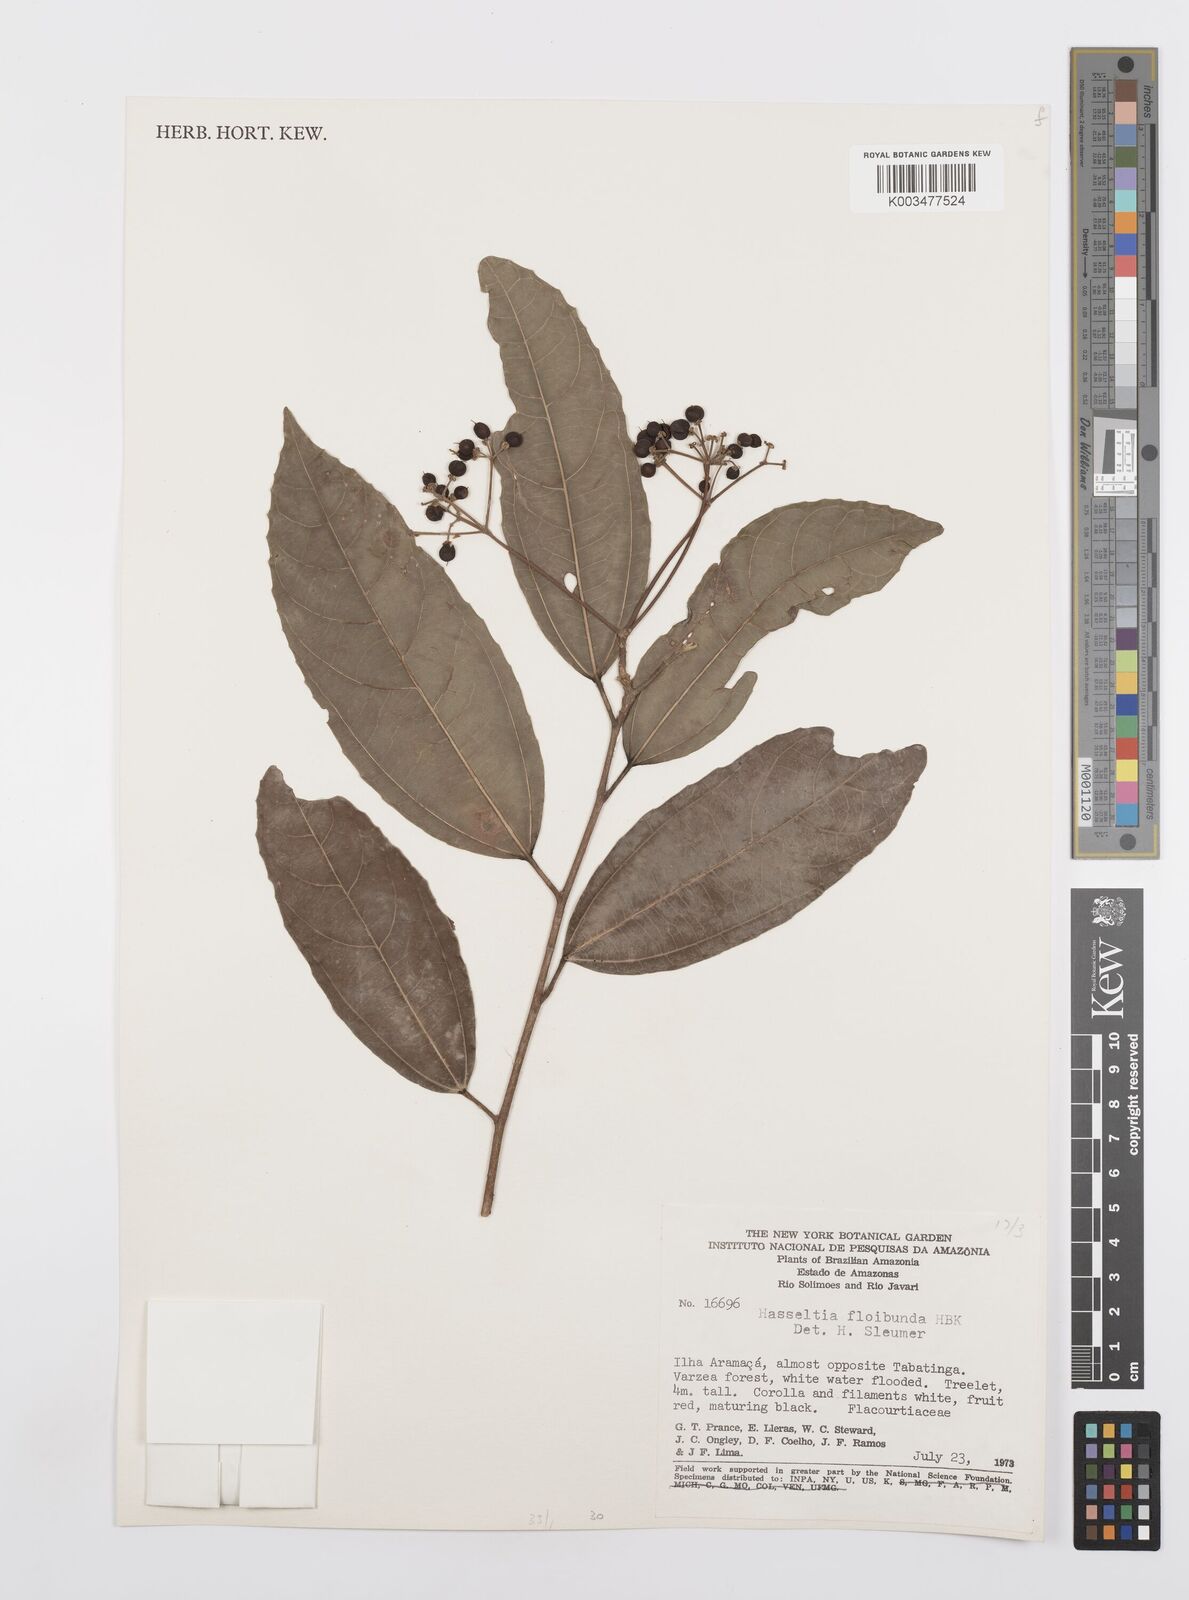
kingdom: Plantae
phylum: Tracheophyta
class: Magnoliopsida
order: Malpighiales
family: Salicaceae
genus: Hasseltia
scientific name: Hasseltia floribunda
